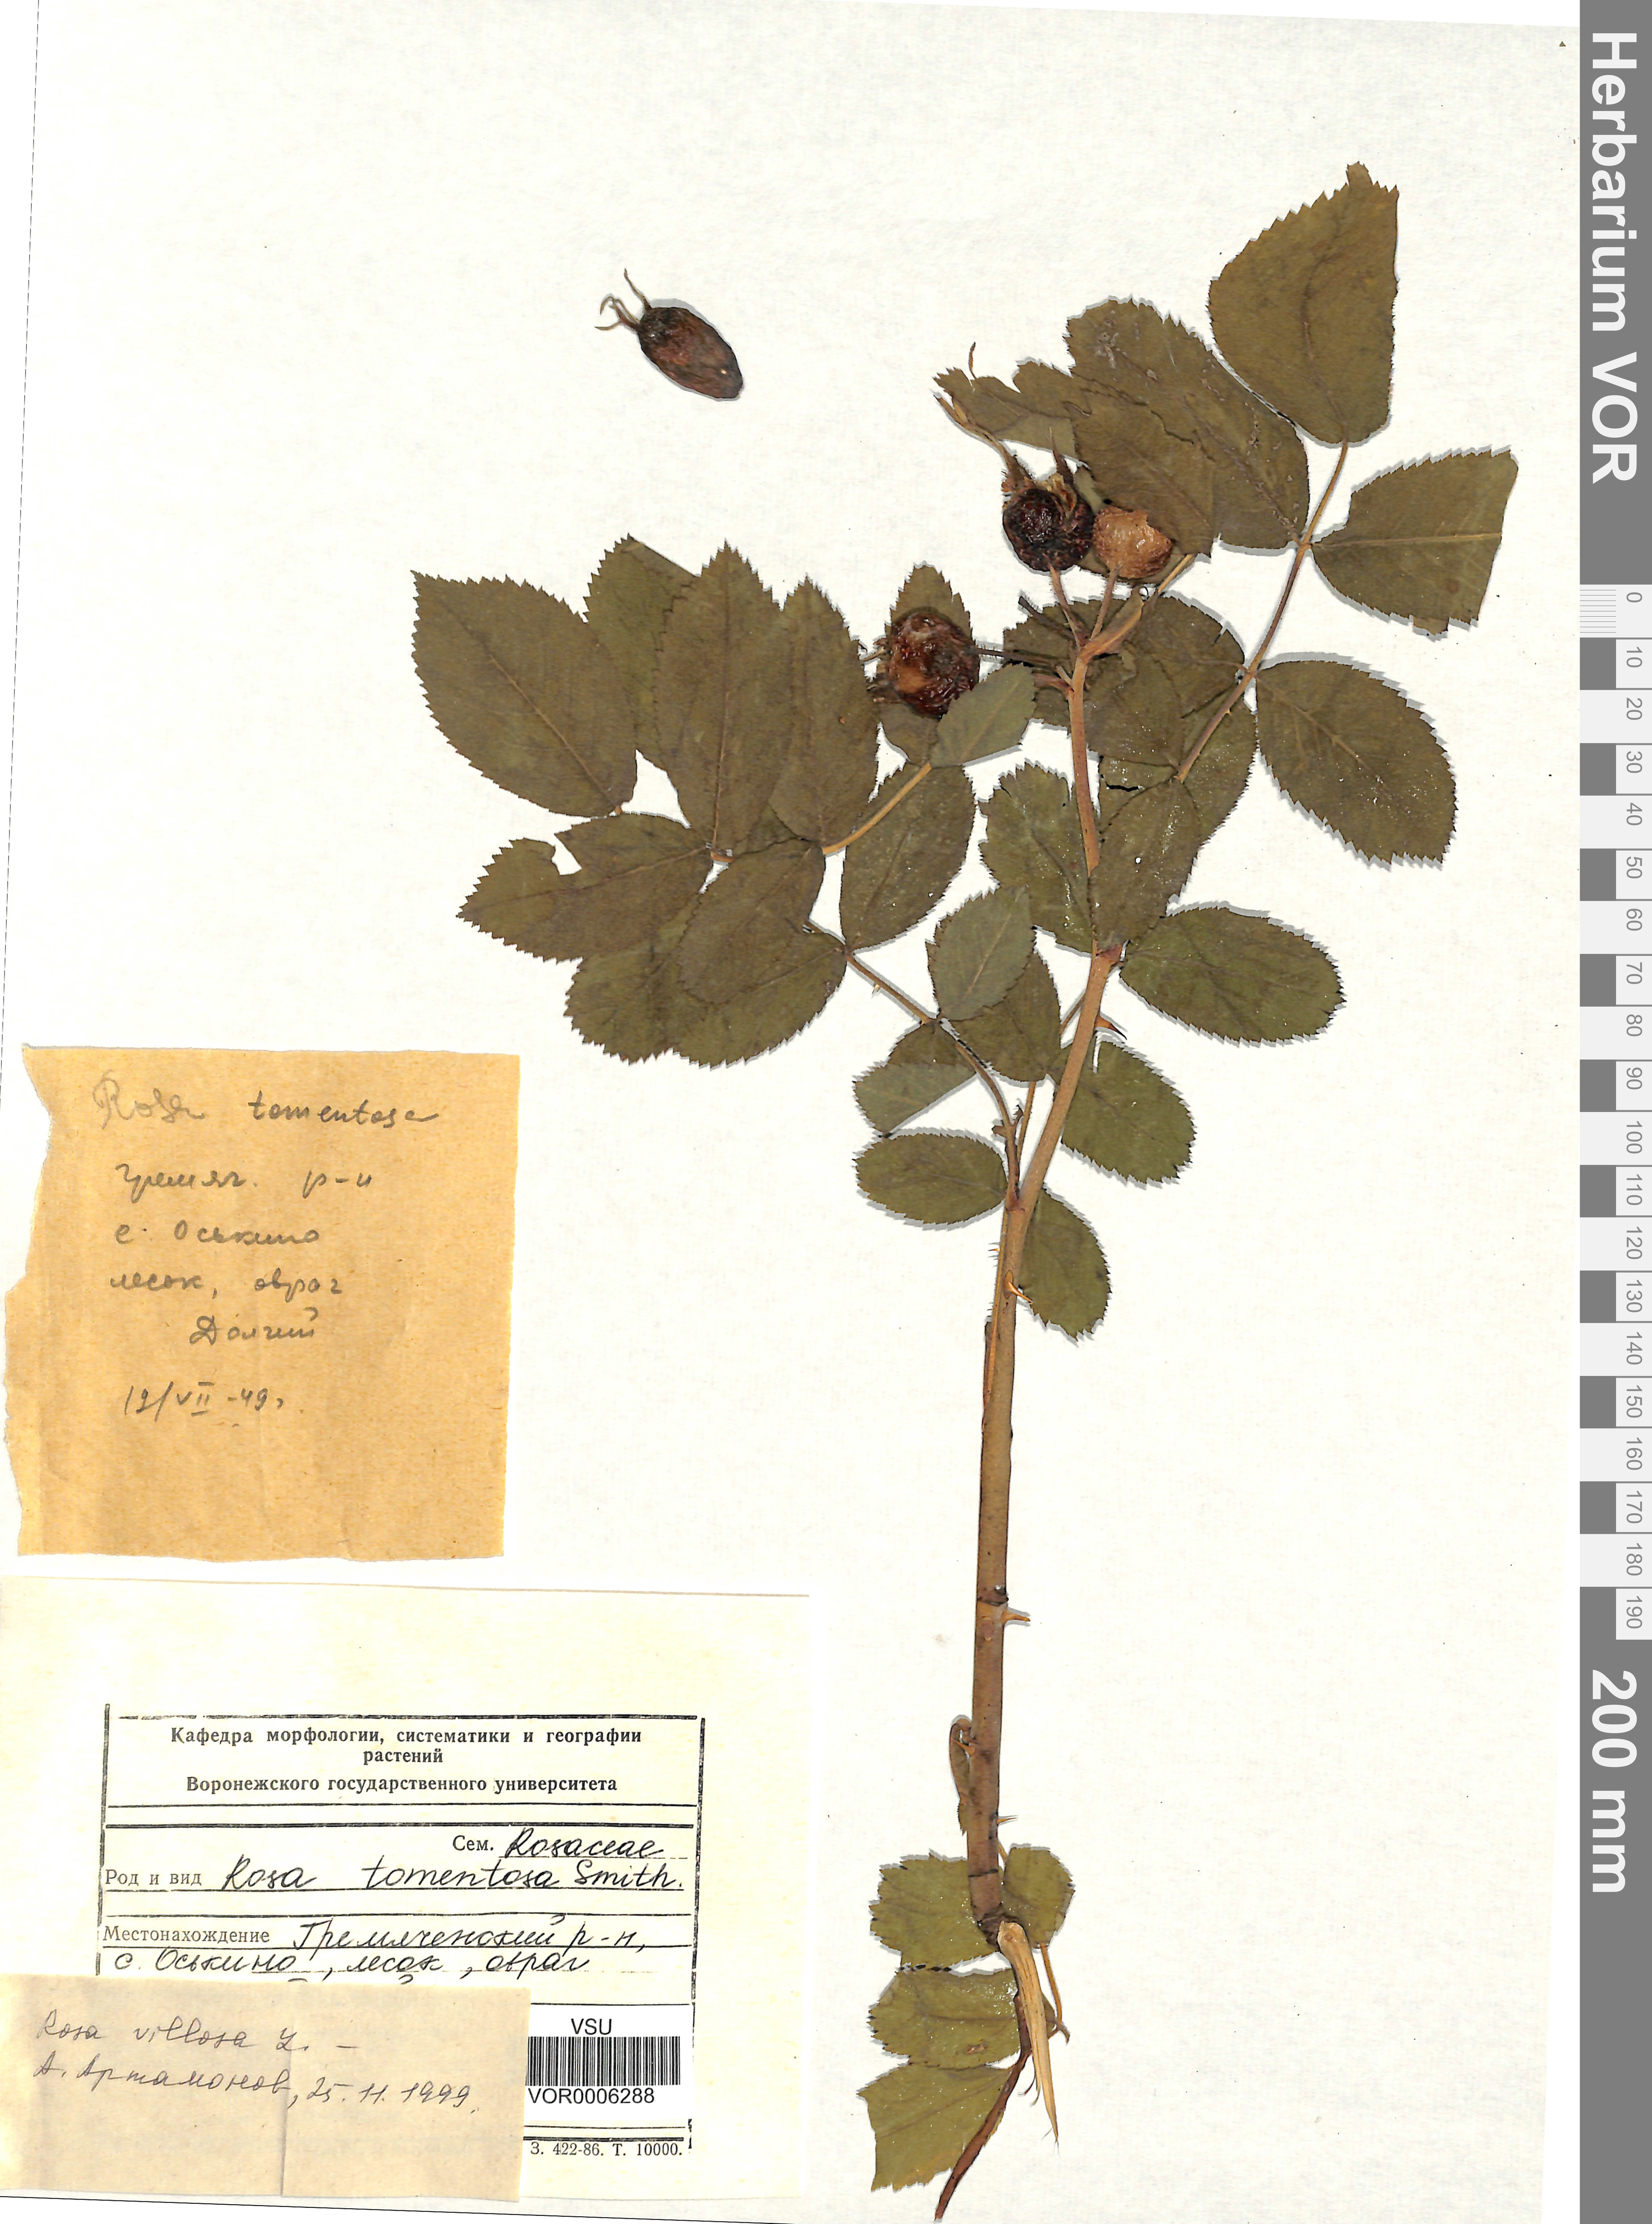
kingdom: Plantae
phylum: Tracheophyta
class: Magnoliopsida
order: Rosales
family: Rosaceae
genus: Rosa
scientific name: Rosa villosa
